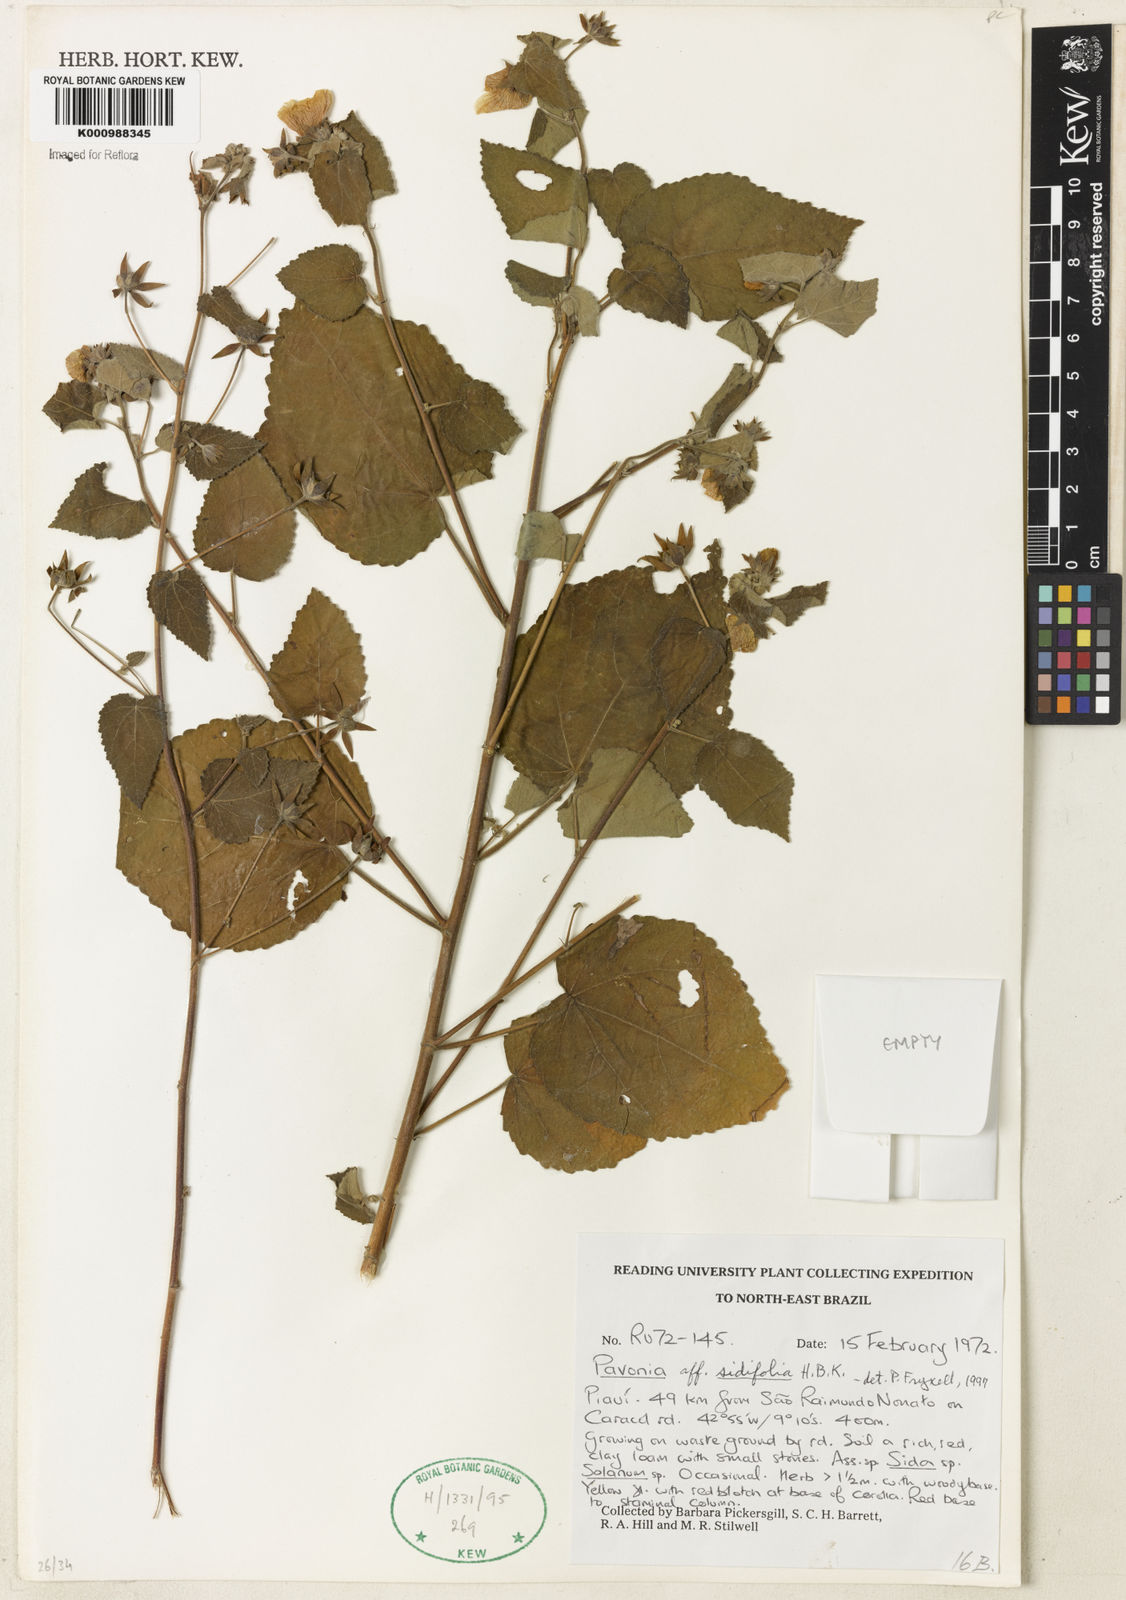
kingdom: Plantae
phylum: Tracheophyta
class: Magnoliopsida
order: Malvales
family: Malvaceae
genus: Pavonia
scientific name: Pavonia sidifolia
